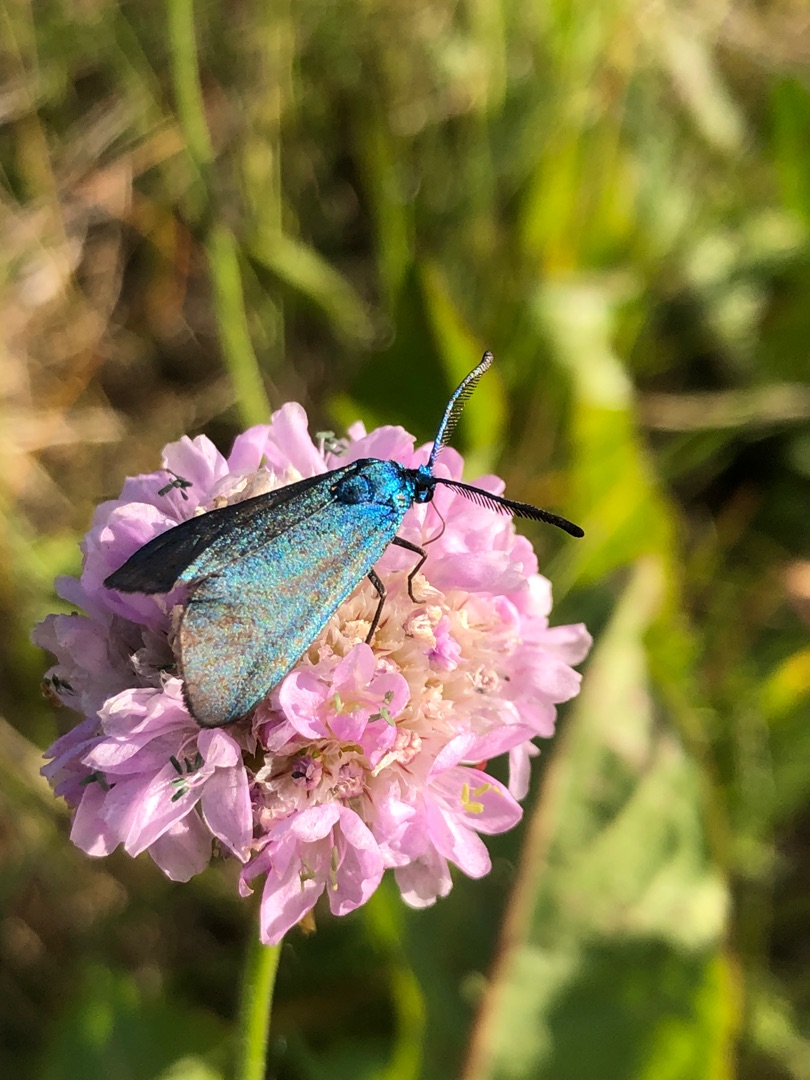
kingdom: Animalia
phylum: Arthropoda
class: Insecta
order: Lepidoptera
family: Zygaenidae
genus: Adscita
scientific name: Adscita statices
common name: Metalvinge
